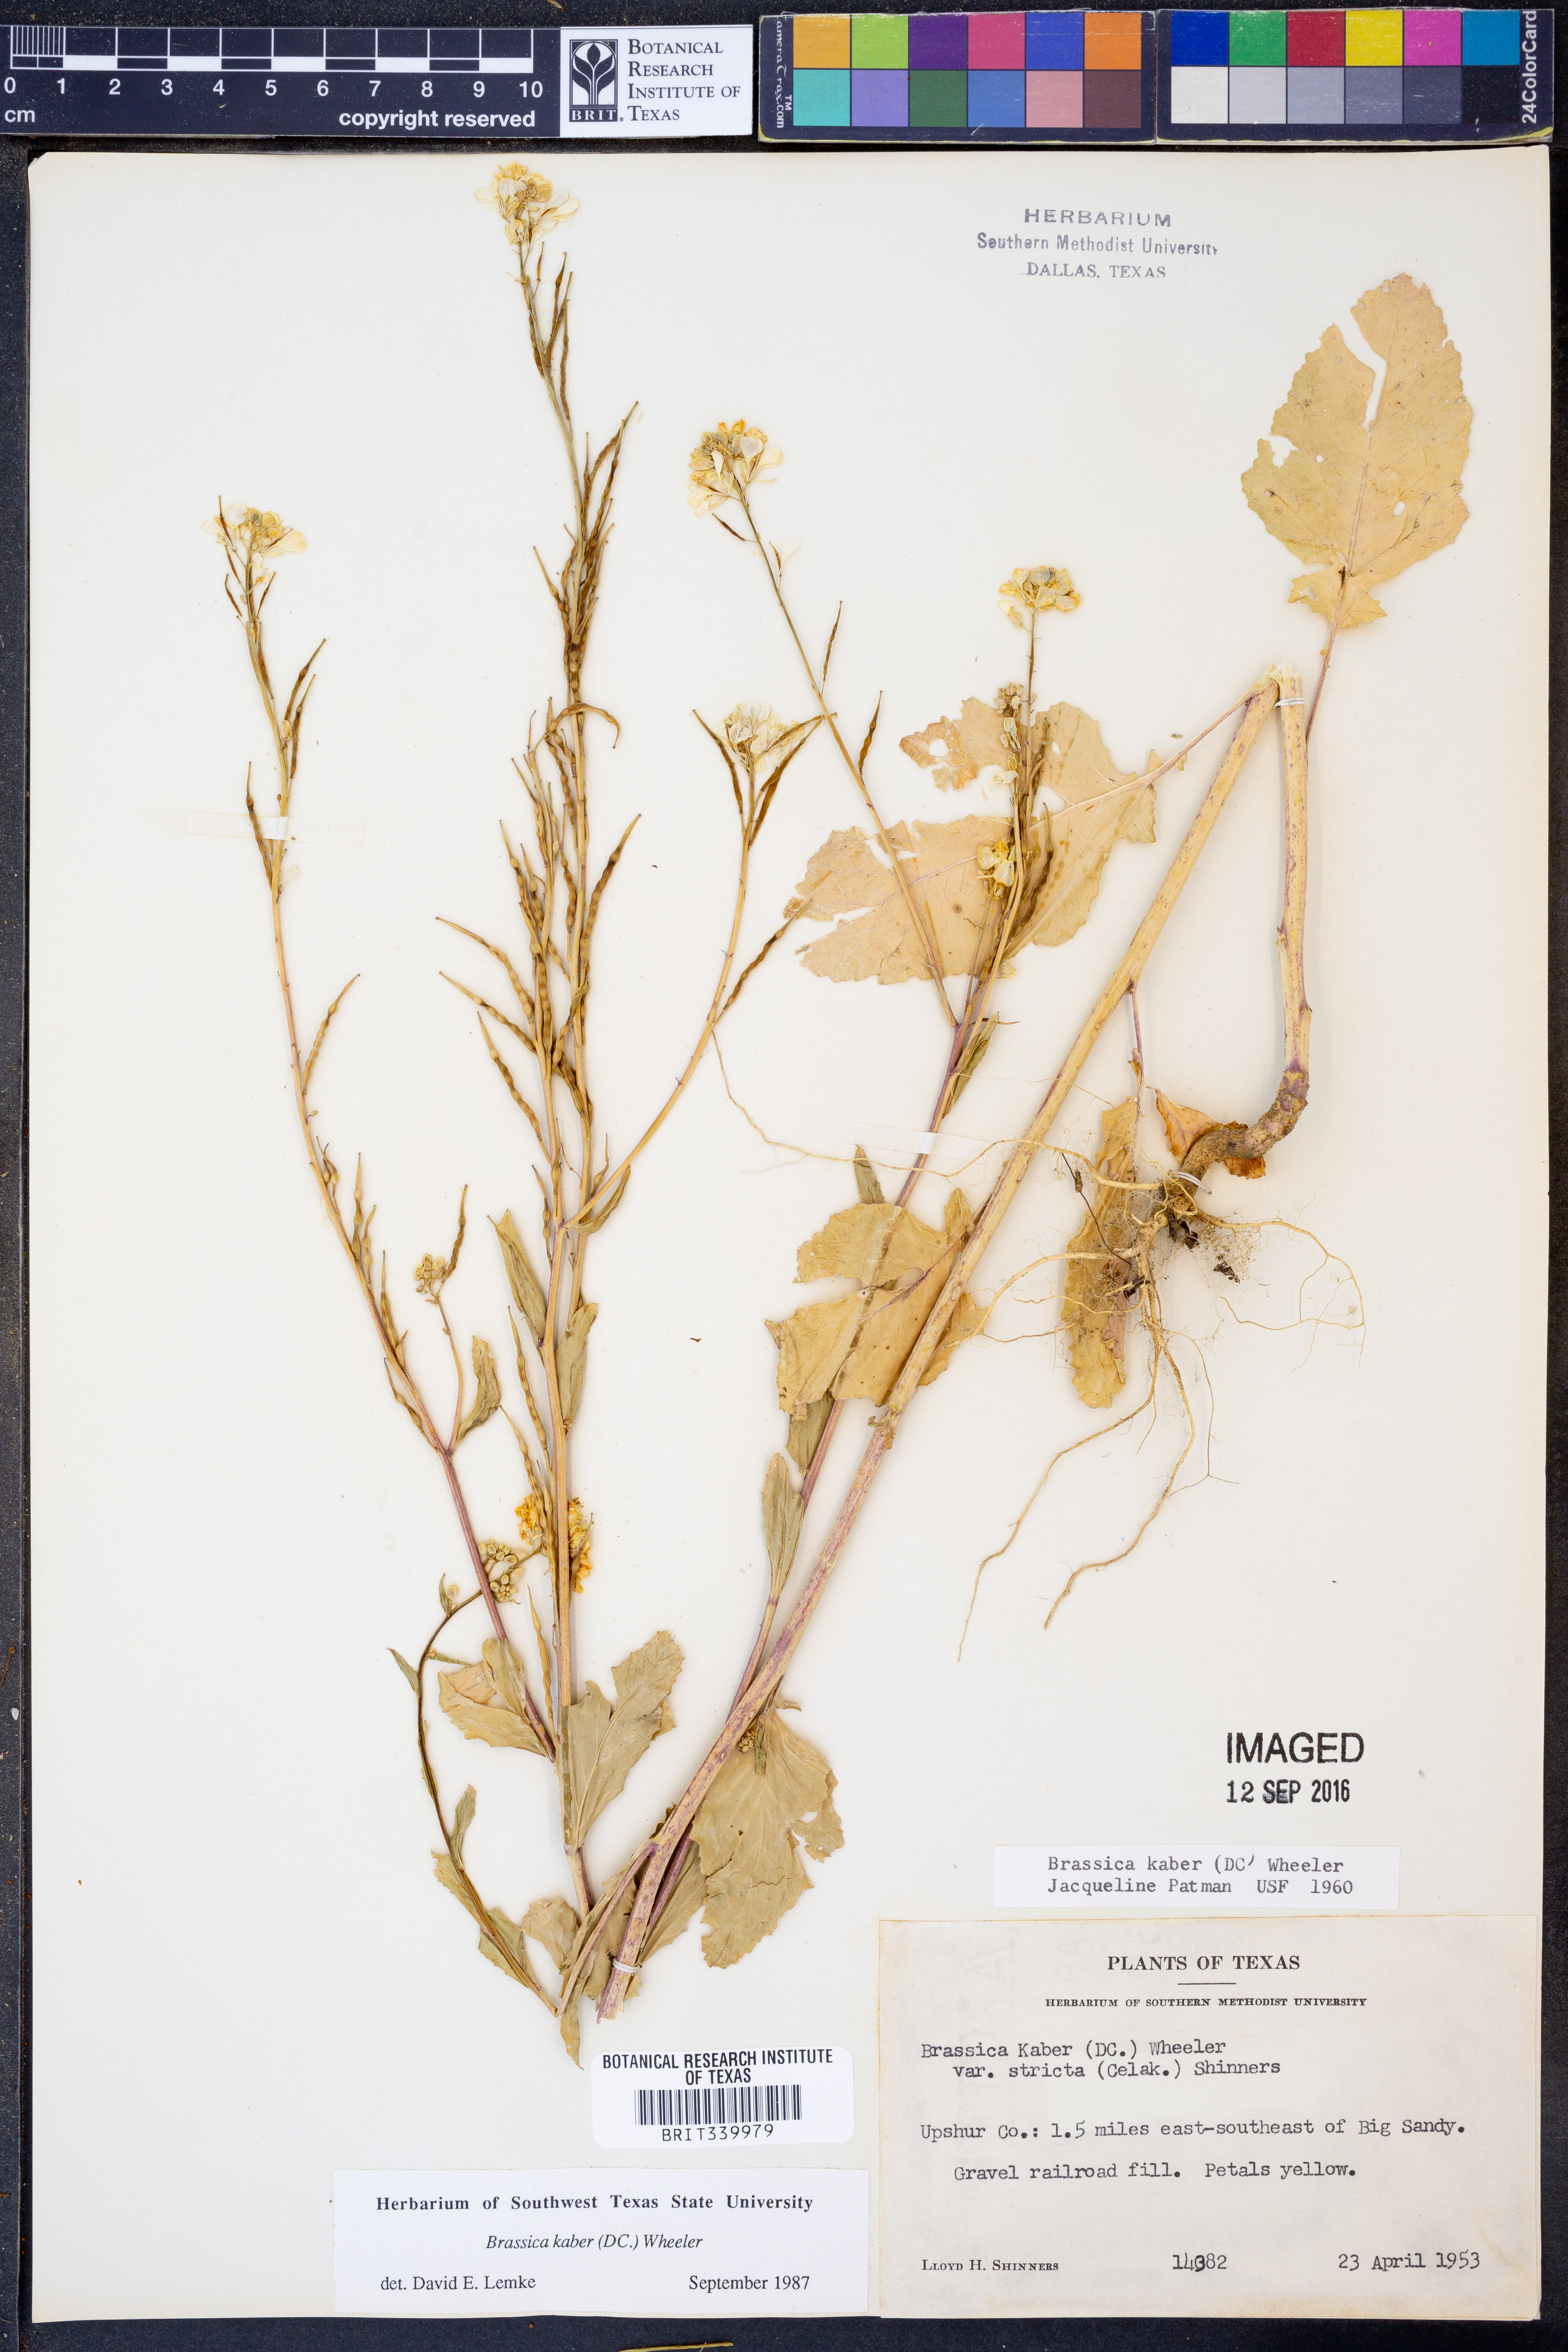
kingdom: Plantae
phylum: Tracheophyta
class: Magnoliopsida
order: Brassicales
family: Brassicaceae
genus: Sinapis
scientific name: Sinapis arvensis
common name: Charlock
